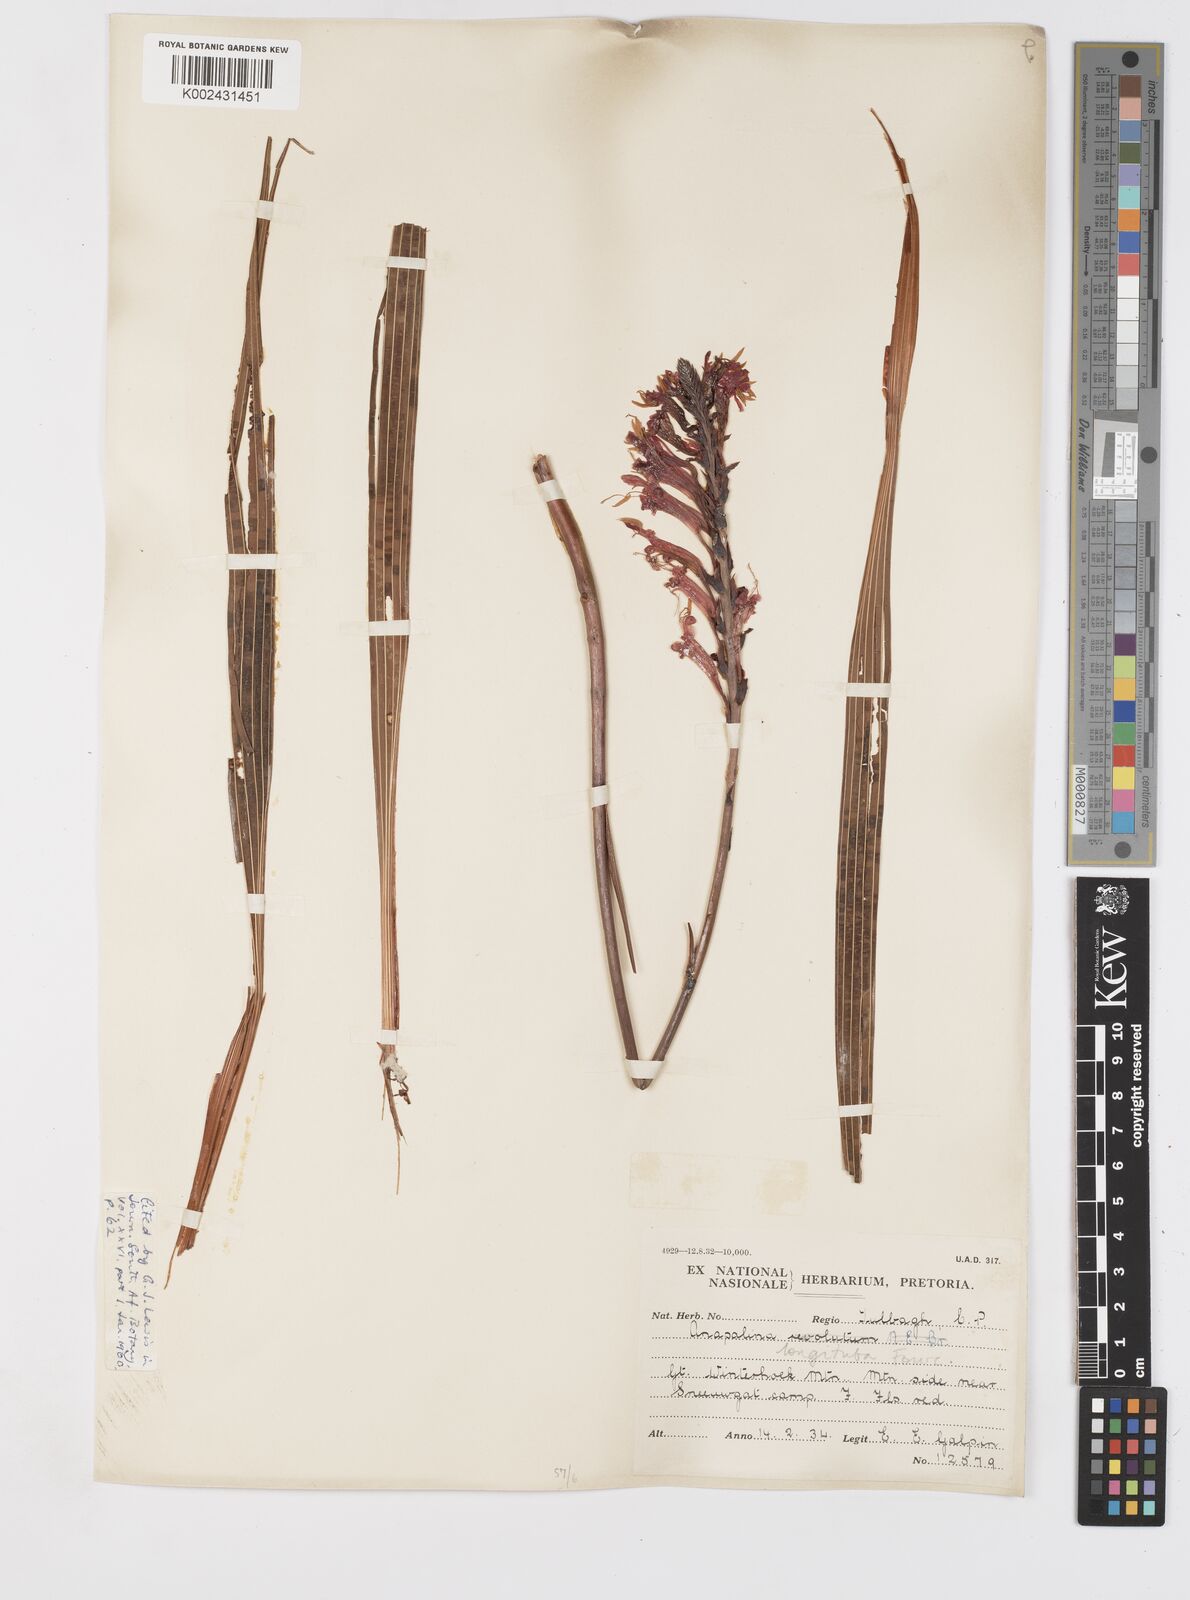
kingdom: Plantae
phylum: Tracheophyta
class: Liliopsida
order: Asparagales
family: Iridaceae
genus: Tritoniopsis
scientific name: Tritoniopsis antholyza
